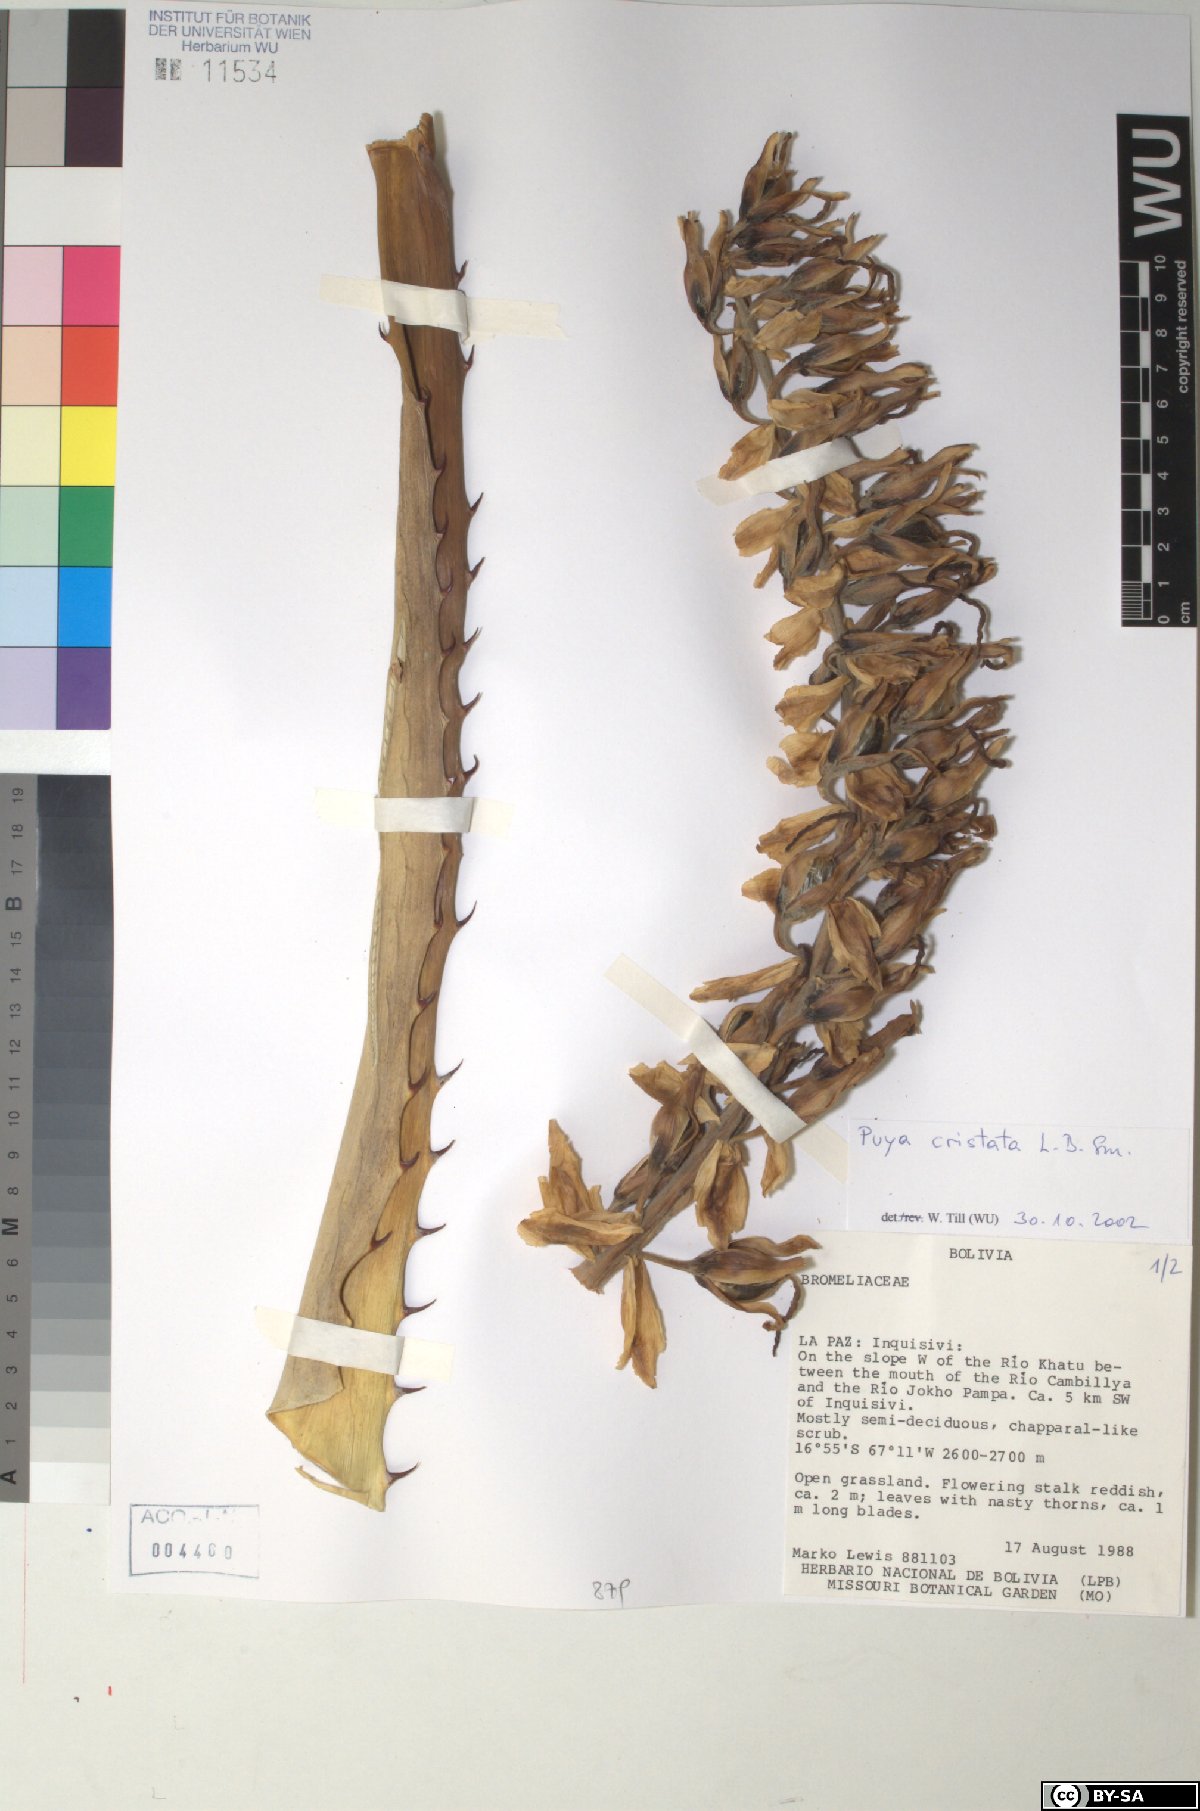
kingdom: Plantae
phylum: Tracheophyta
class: Liliopsida
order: Poales
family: Bromeliaceae
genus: Puya
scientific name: Puya cristata
